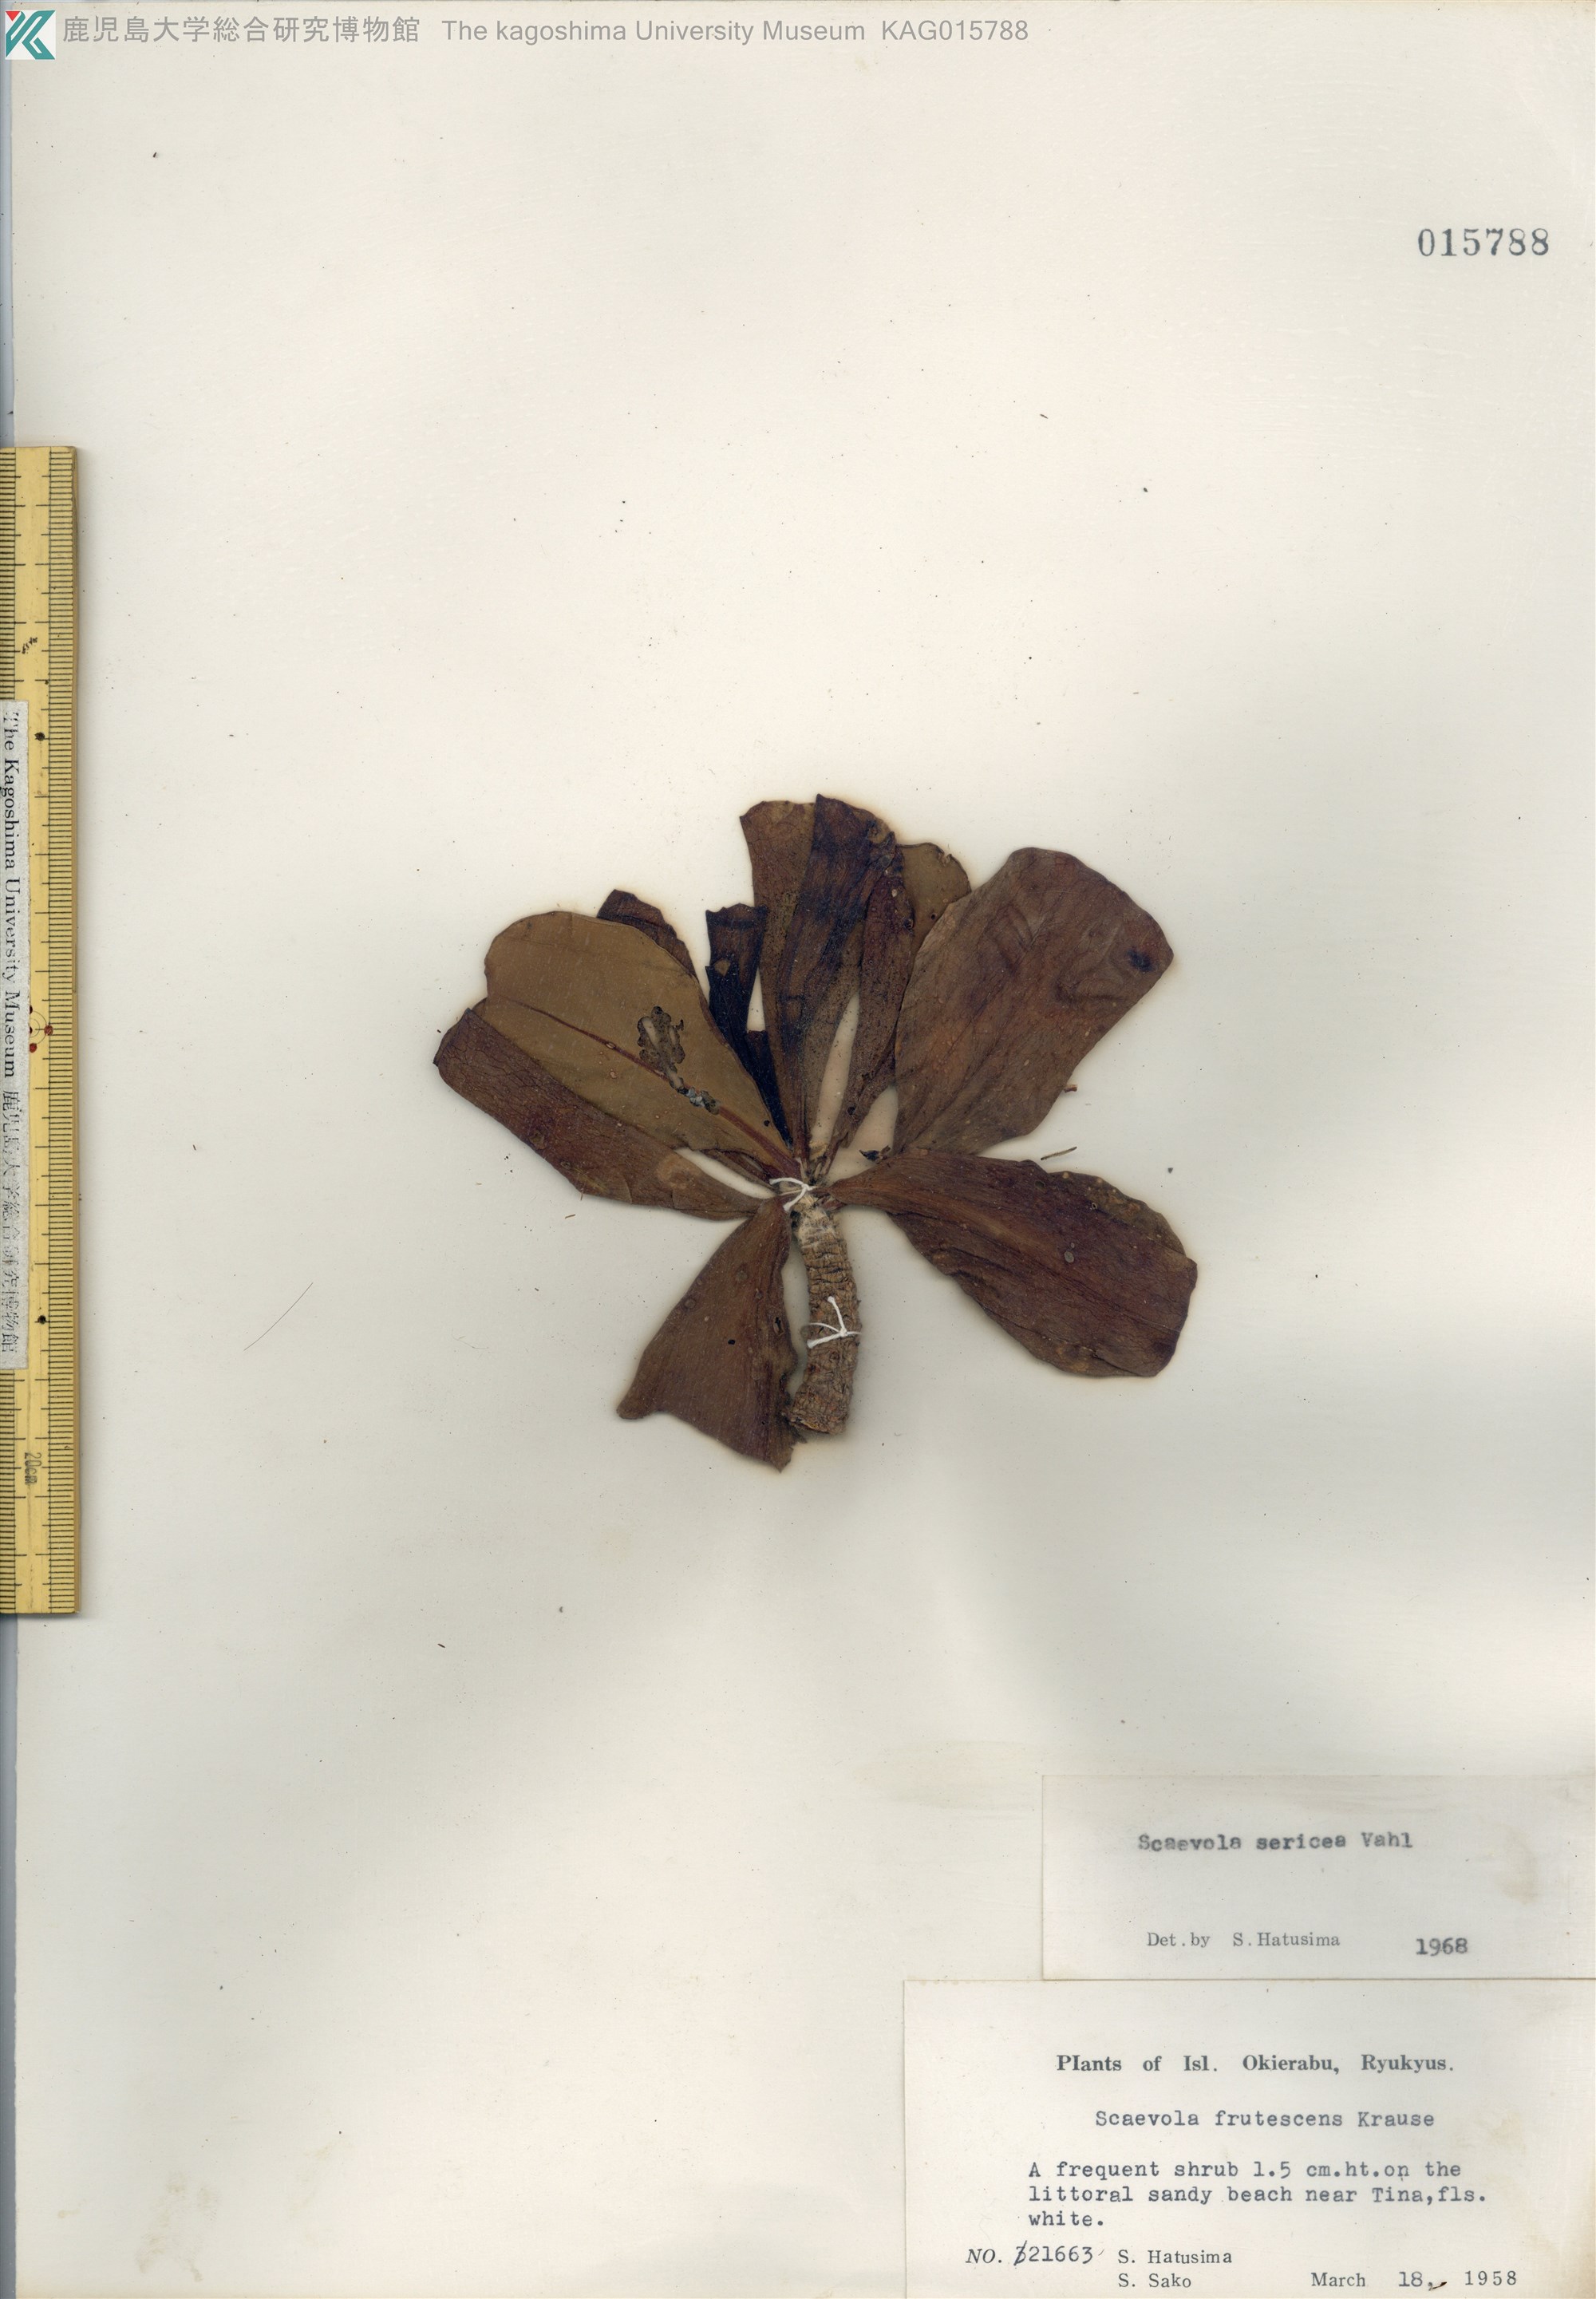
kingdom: Plantae
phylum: Tracheophyta
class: Magnoliopsida
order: Asterales
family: Goodeniaceae
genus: Scaevola
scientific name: Scaevola taccada
